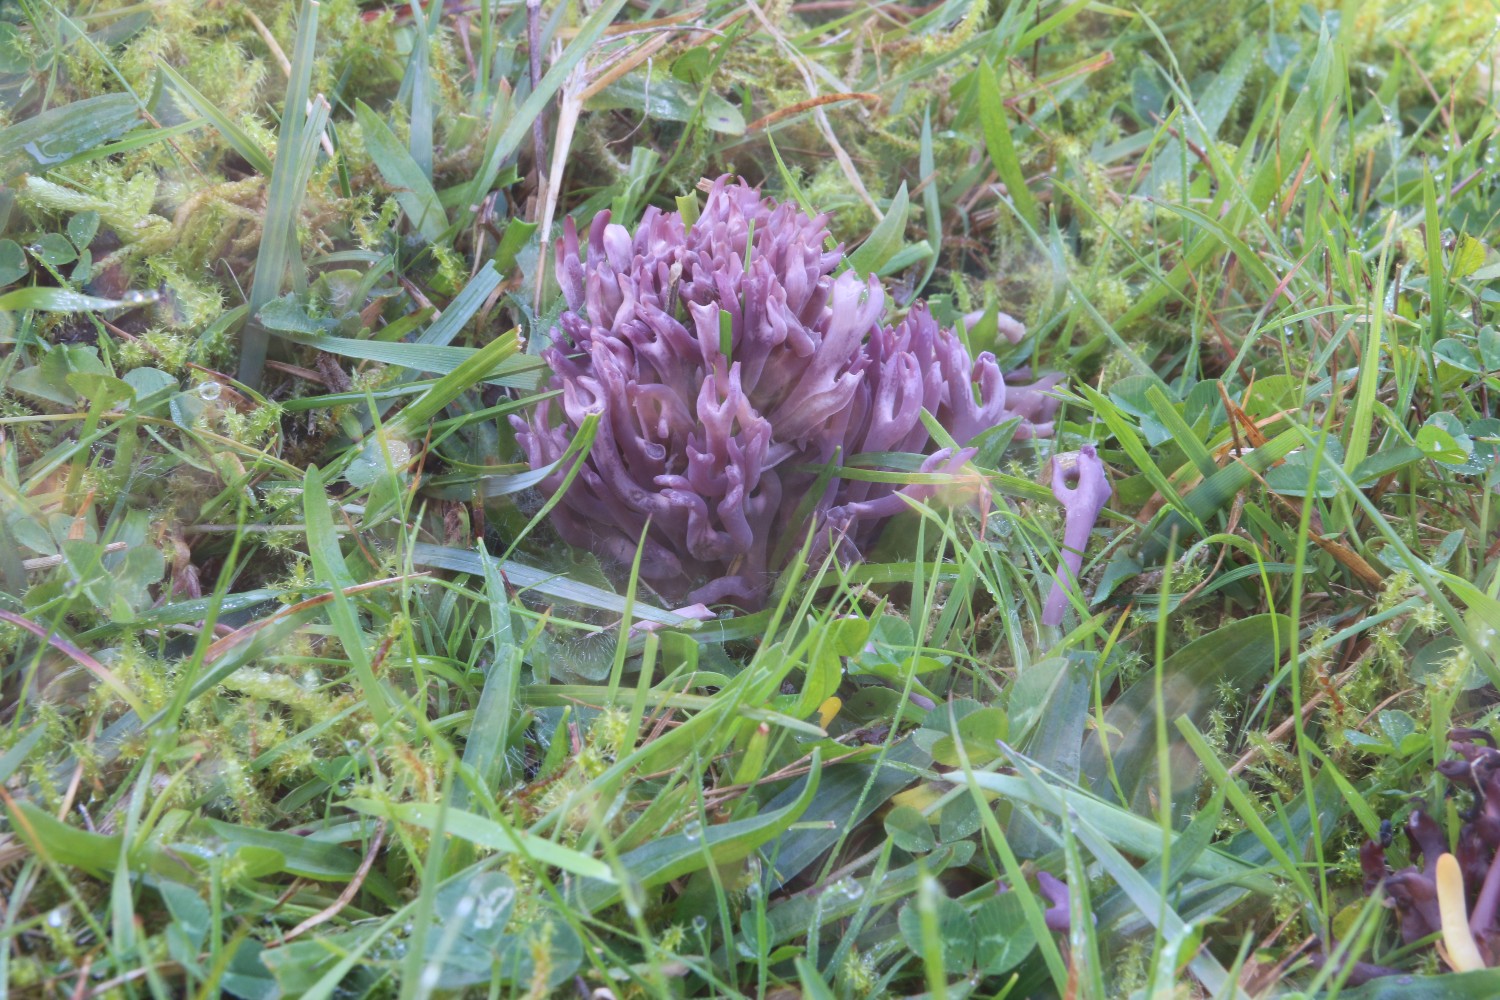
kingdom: Fungi
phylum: Basidiomycota
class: Agaricomycetes
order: Agaricales
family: Clavariaceae
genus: Clavaria
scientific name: Clavaria zollingeri
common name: purpur-køllesvamp
